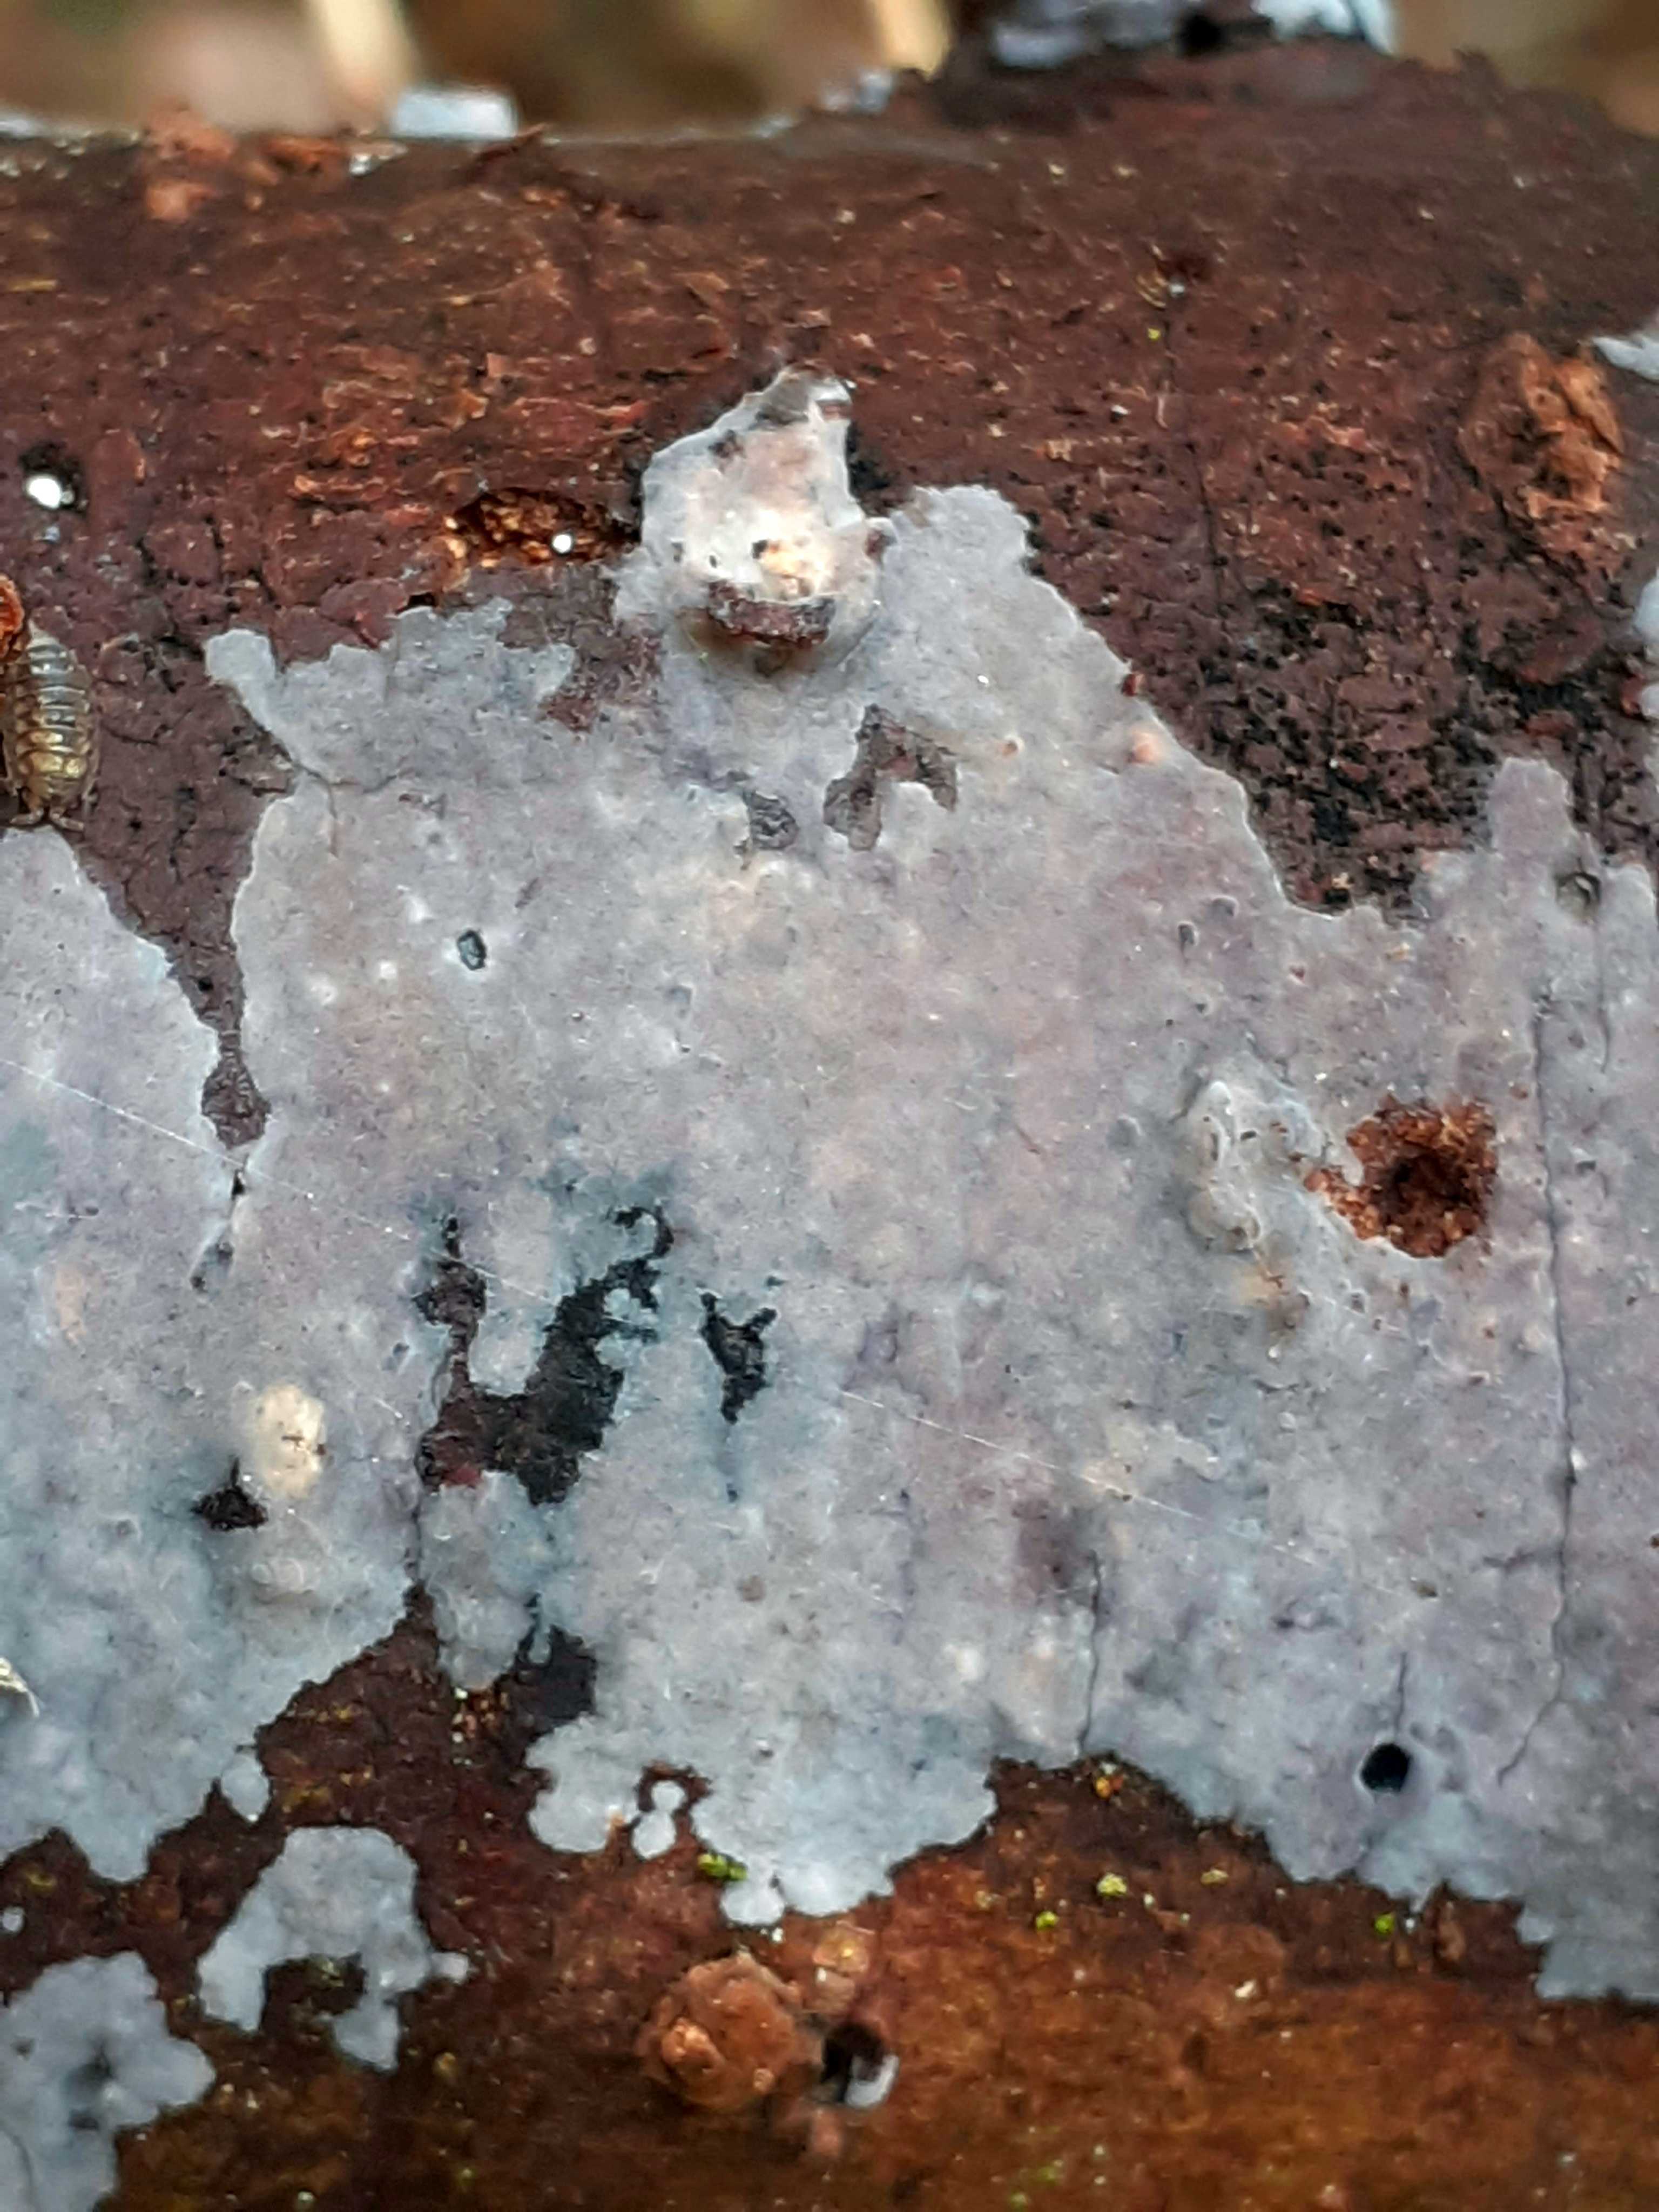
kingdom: Fungi
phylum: Basidiomycota
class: Agaricomycetes
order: Sebacinales
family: Sebacinaceae
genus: Sebacina
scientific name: Sebacina grisea
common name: blågrå bævrehinde
